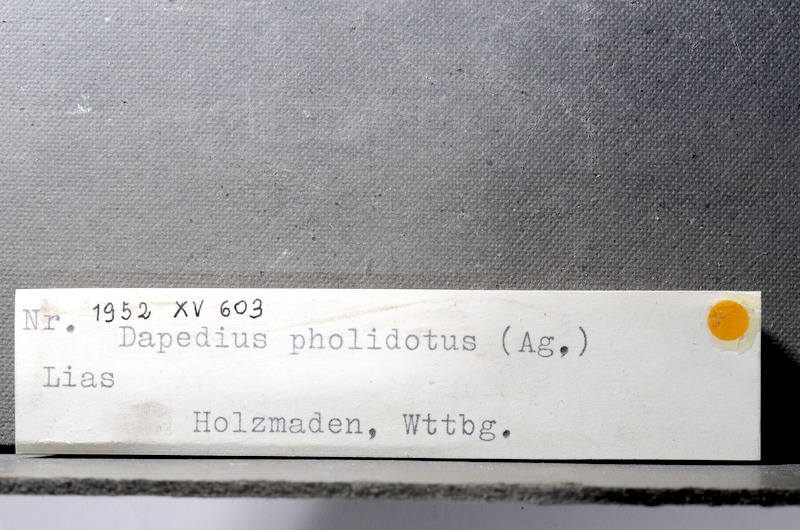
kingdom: Animalia
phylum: Chordata
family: Dapediidae
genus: Dapedium
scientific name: Dapedium pholidotum
